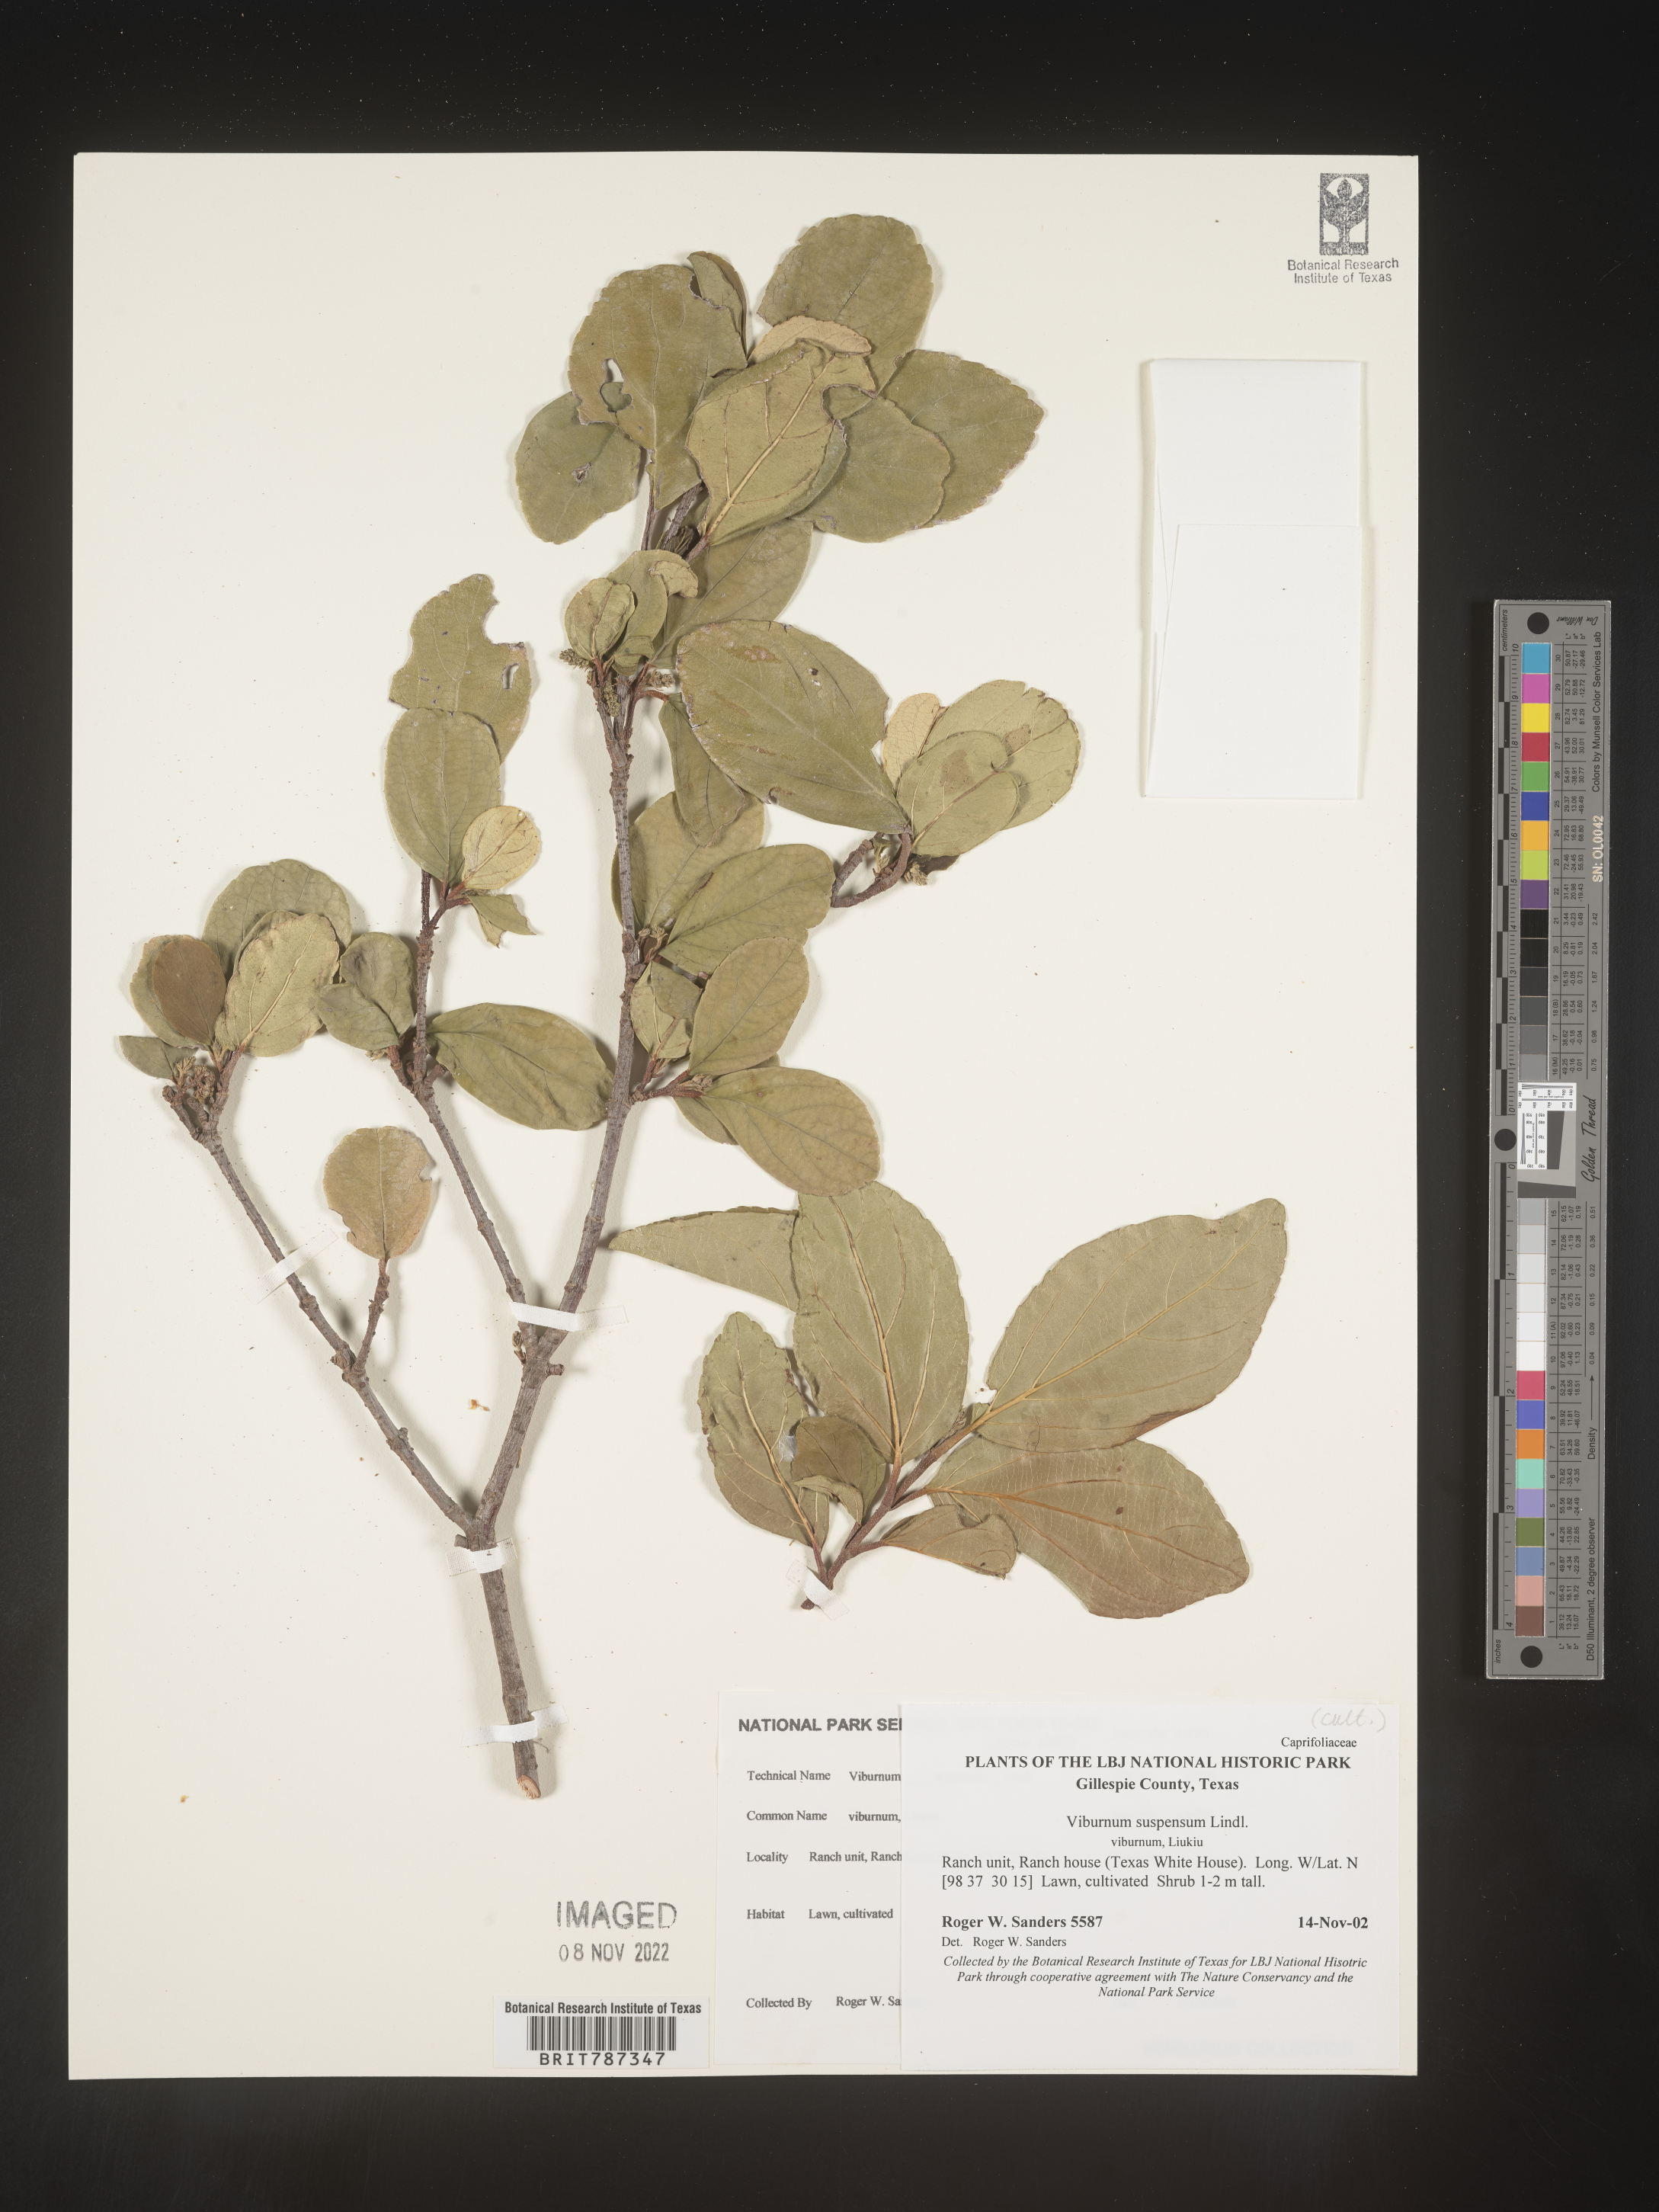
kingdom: Plantae
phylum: Tracheophyta
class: Magnoliopsida
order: Dipsacales
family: Viburnaceae
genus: Viburnum
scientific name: Viburnum
